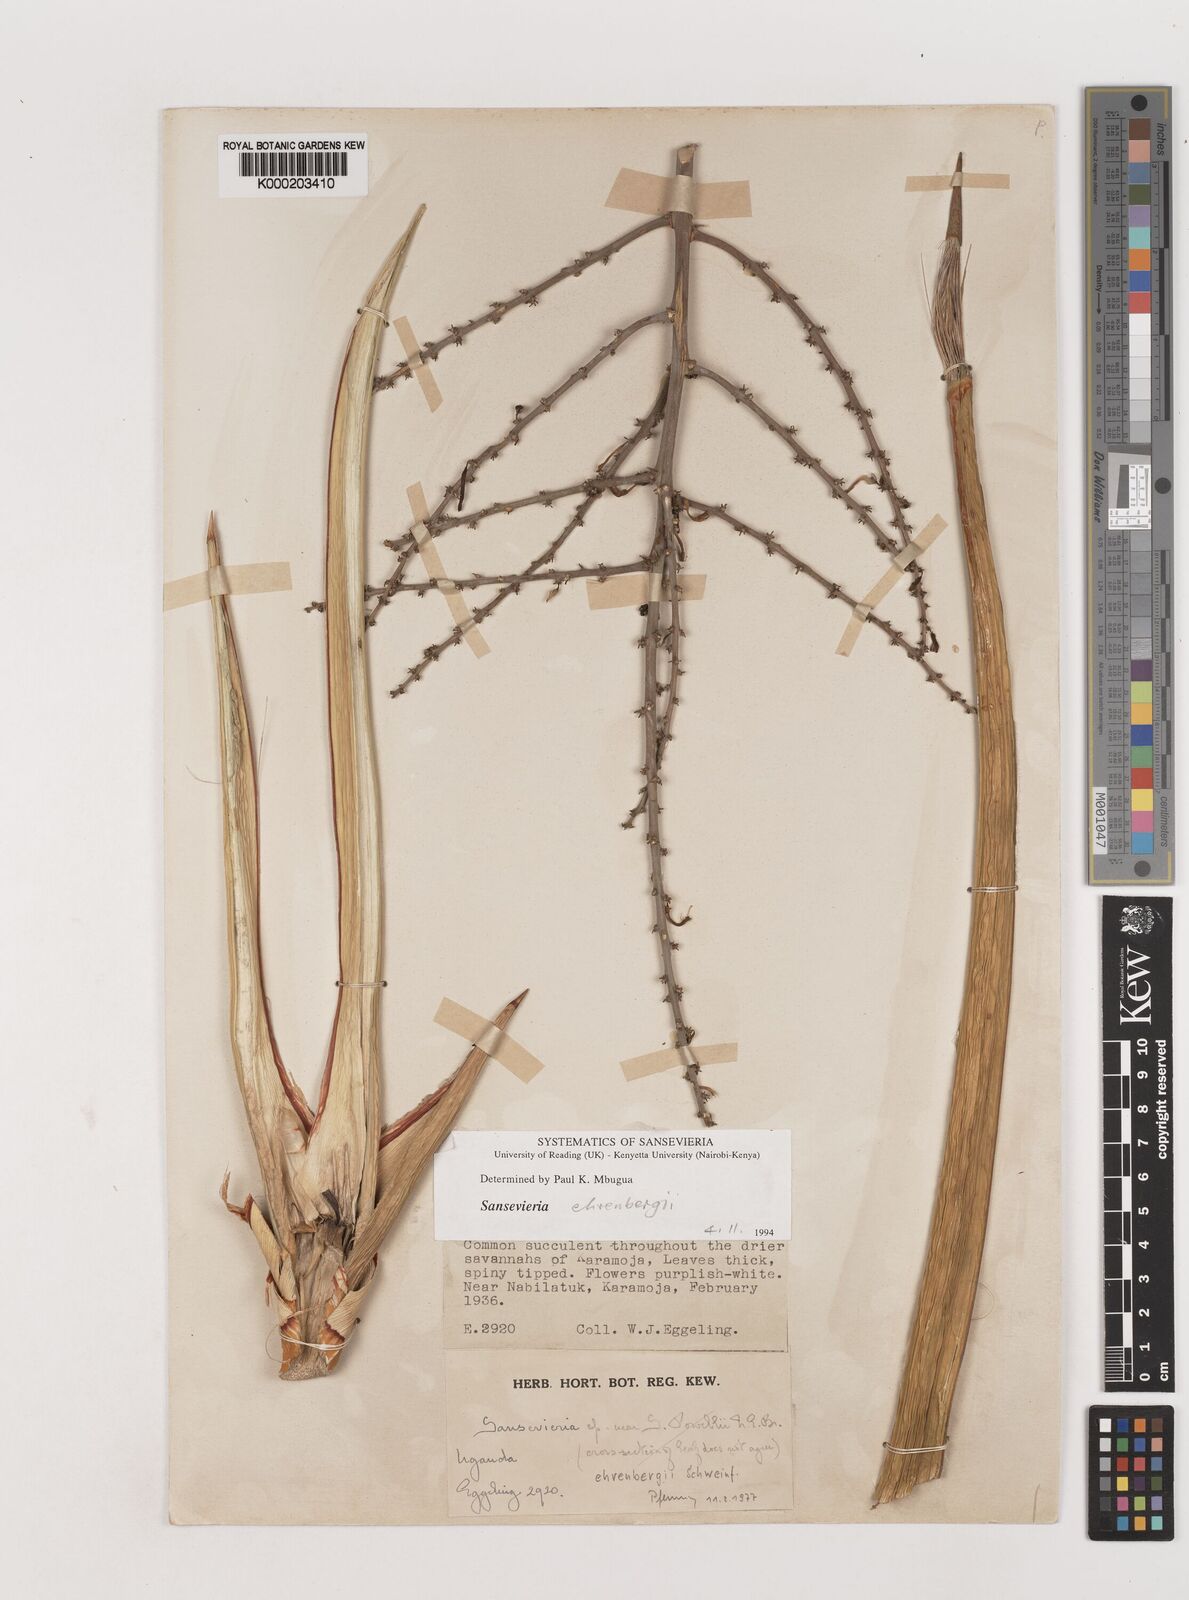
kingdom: Plantae
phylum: Tracheophyta
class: Liliopsida
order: Asparagales
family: Asparagaceae
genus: Dracaena
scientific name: Dracaena hanningtonii
